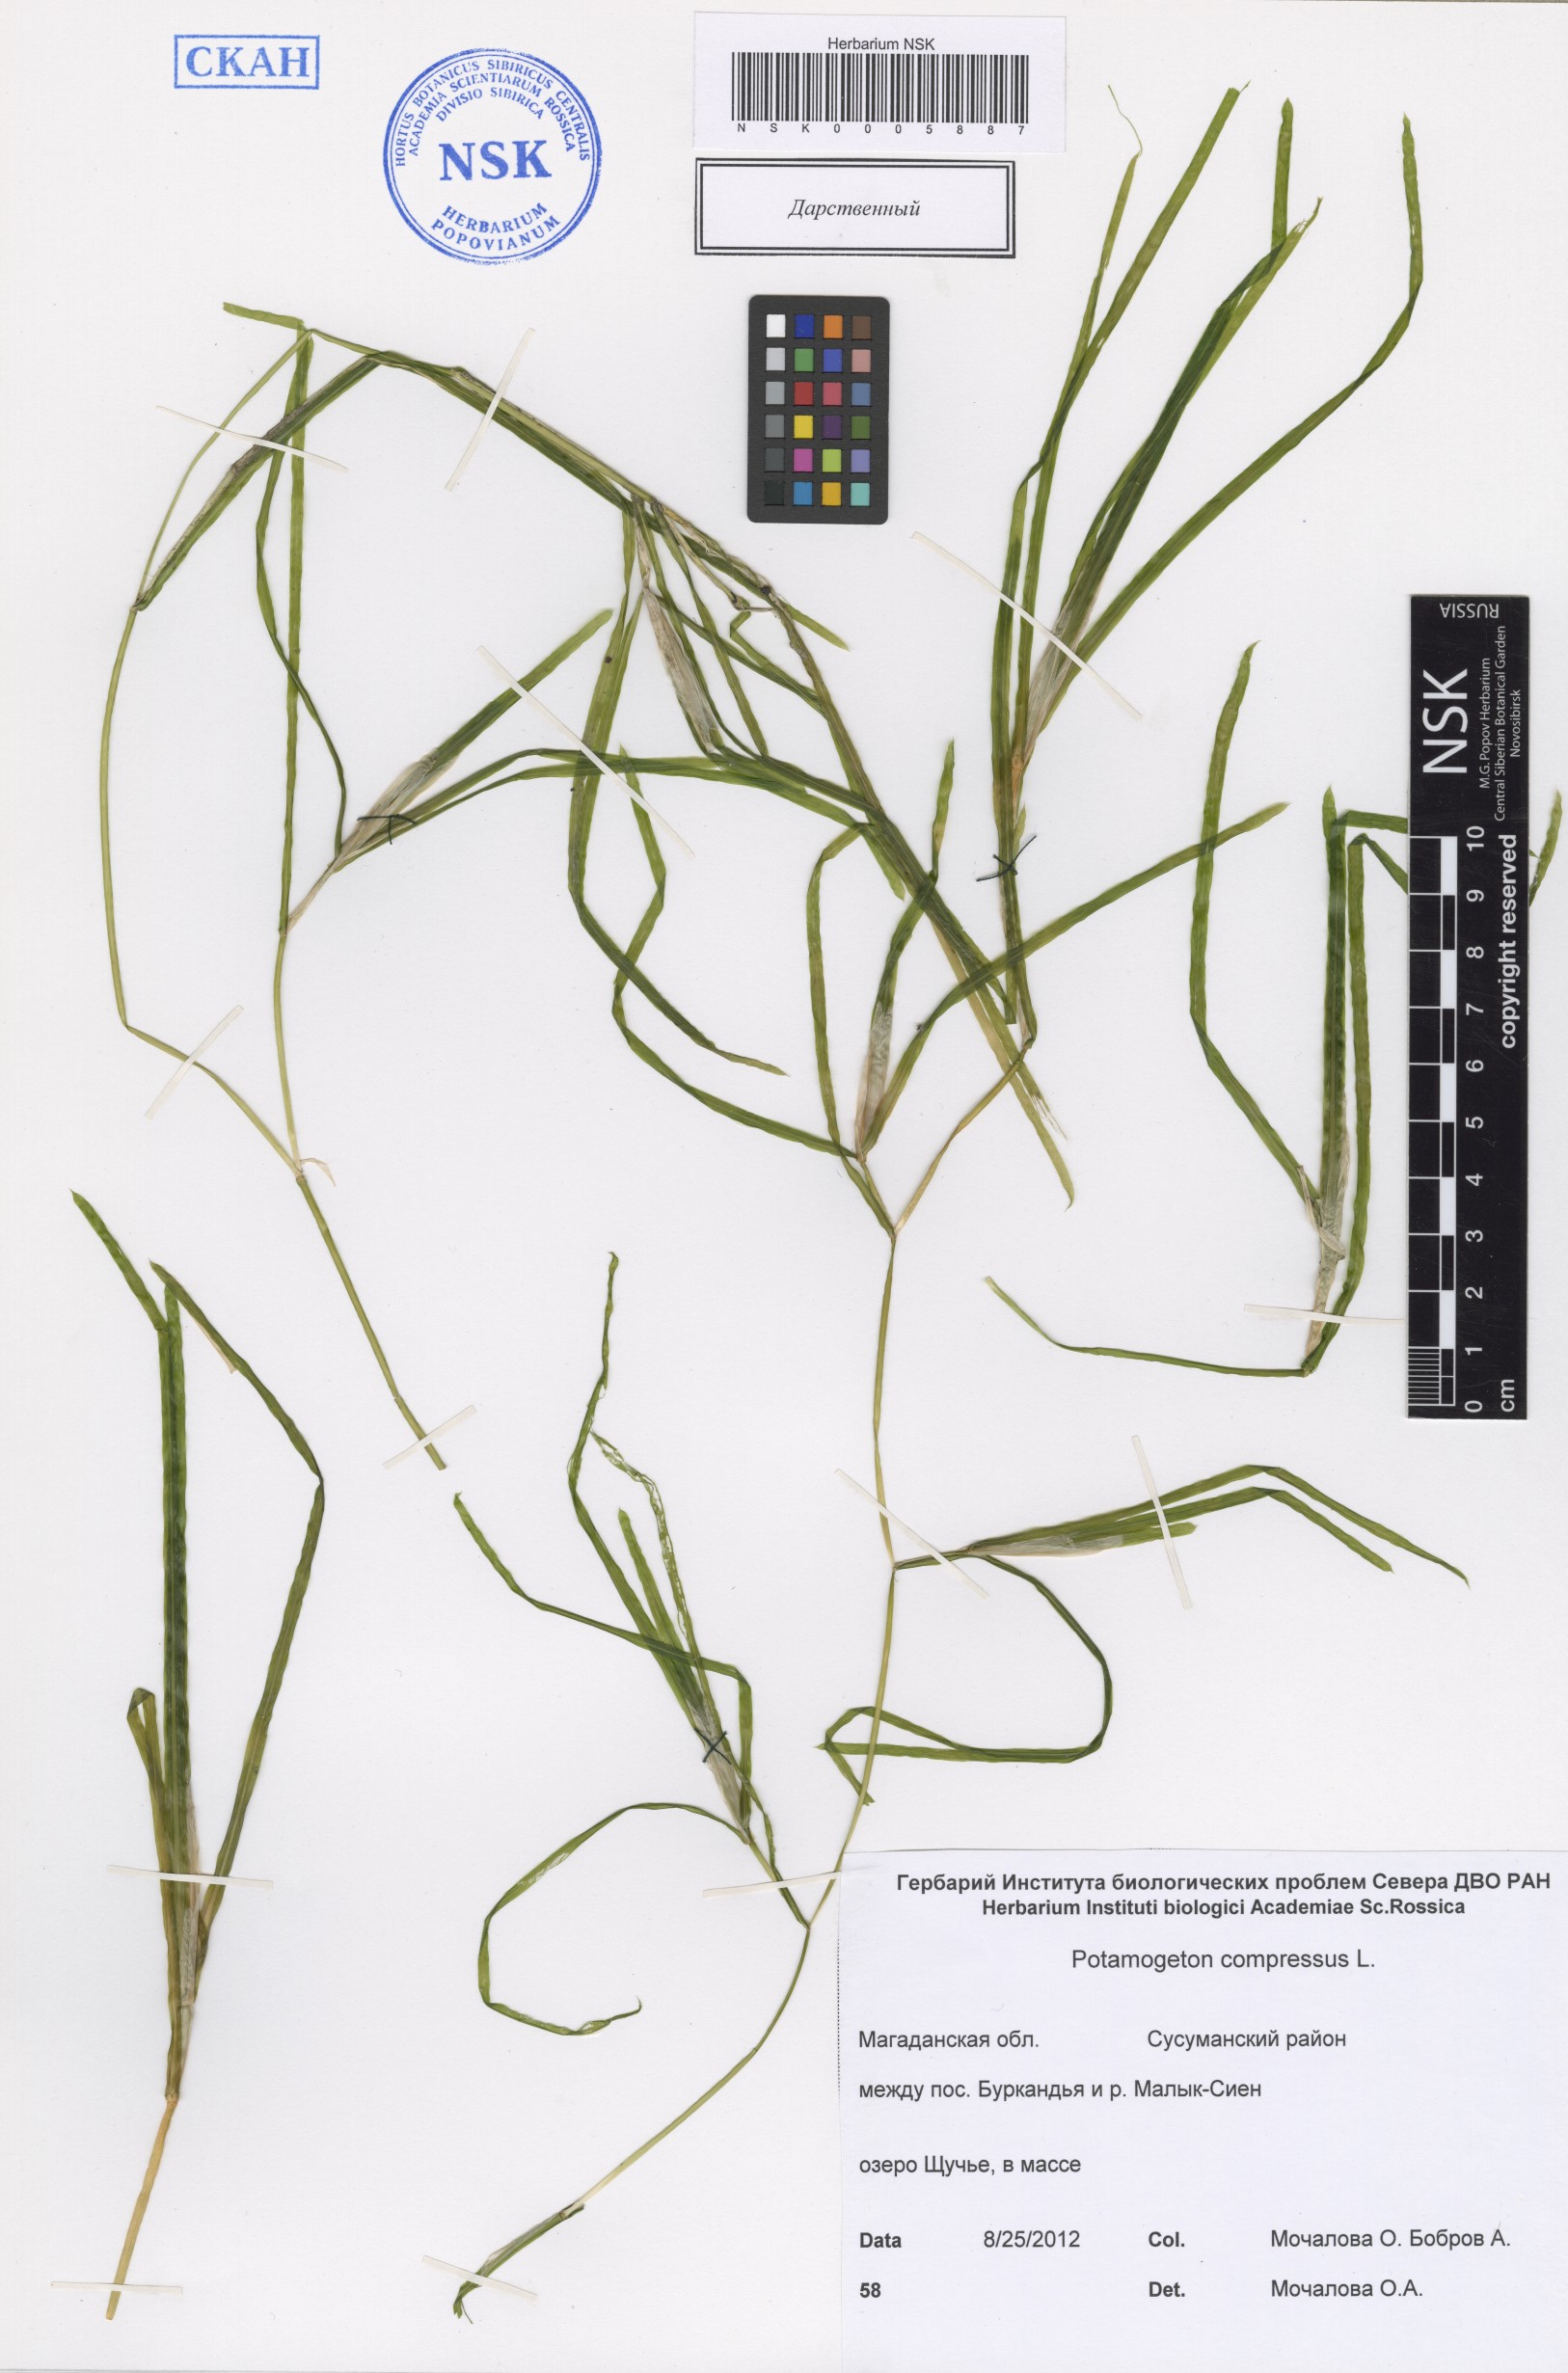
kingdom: Plantae
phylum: Tracheophyta
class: Liliopsida
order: Alismatales
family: Potamogetonaceae
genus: Potamogeton
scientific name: Potamogeton compressus
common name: Grass-wrack pondweed
